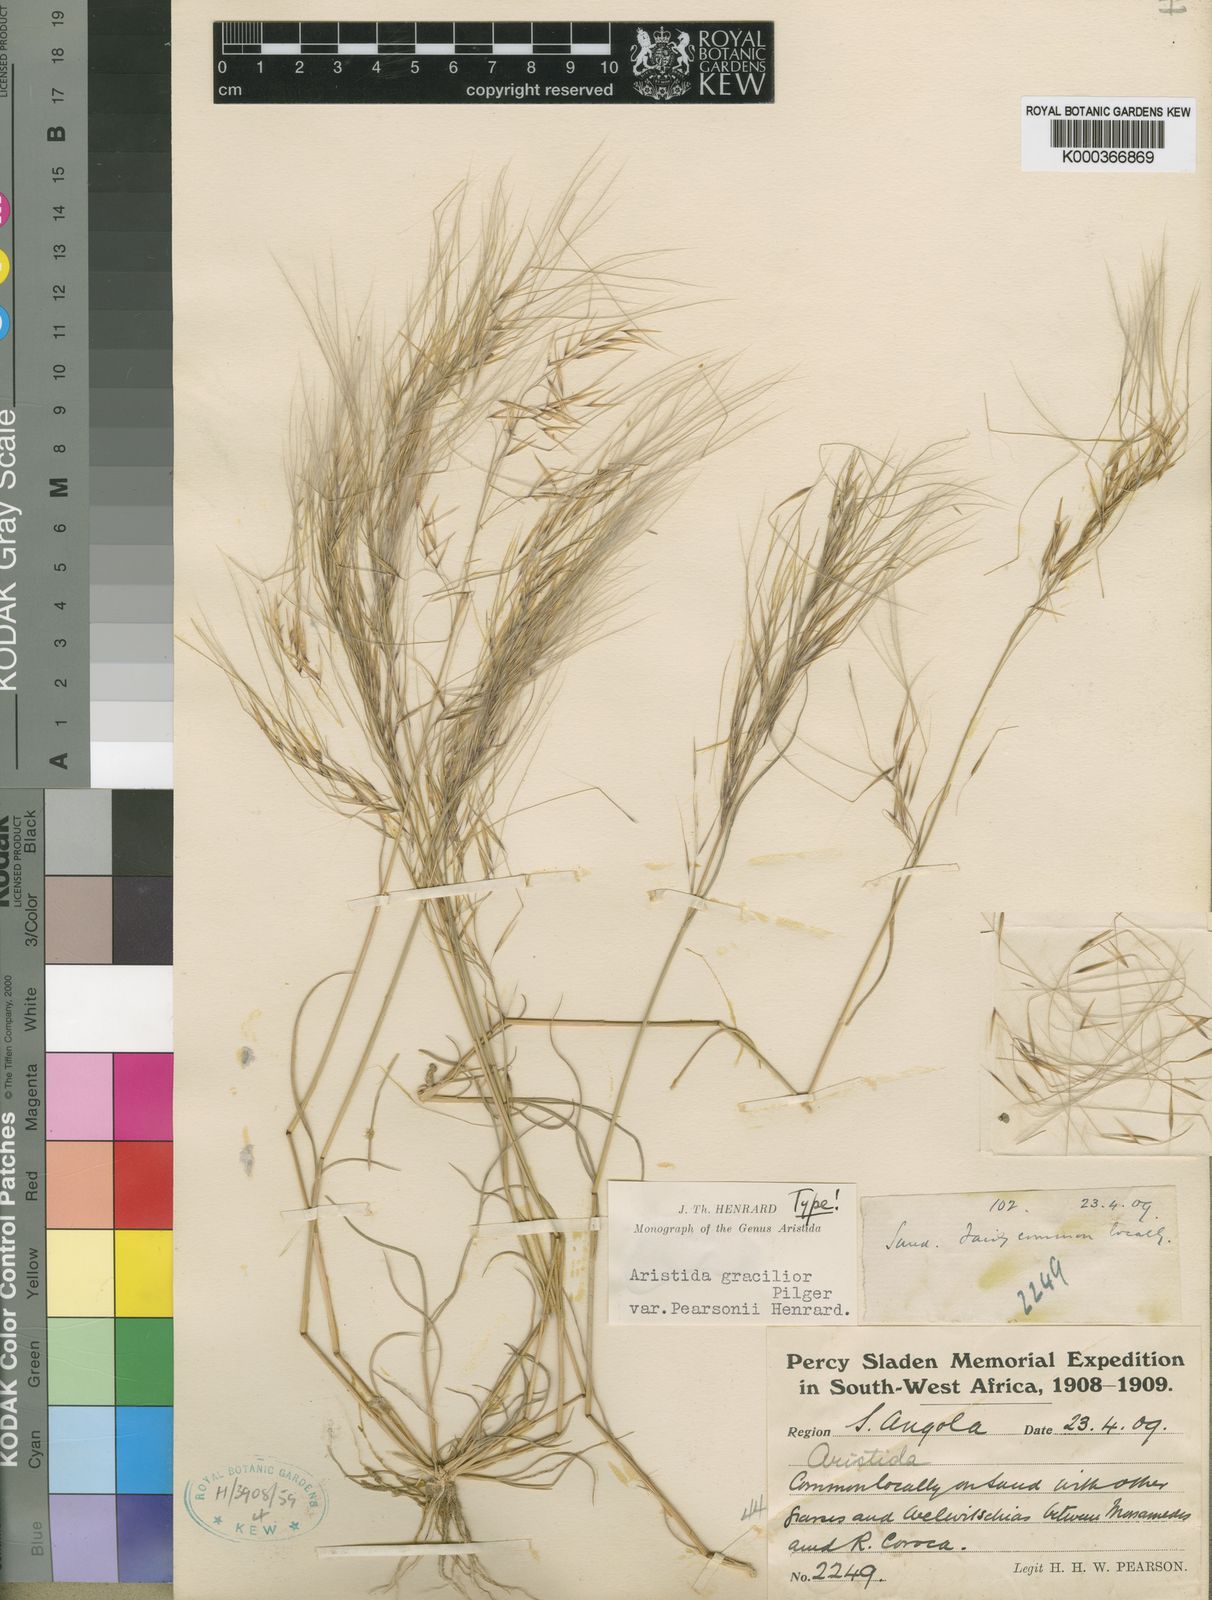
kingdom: Plantae
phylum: Tracheophyta
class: Liliopsida
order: Poales
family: Poaceae
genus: Stipagrostis
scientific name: Stipagrostis hirtigluma
